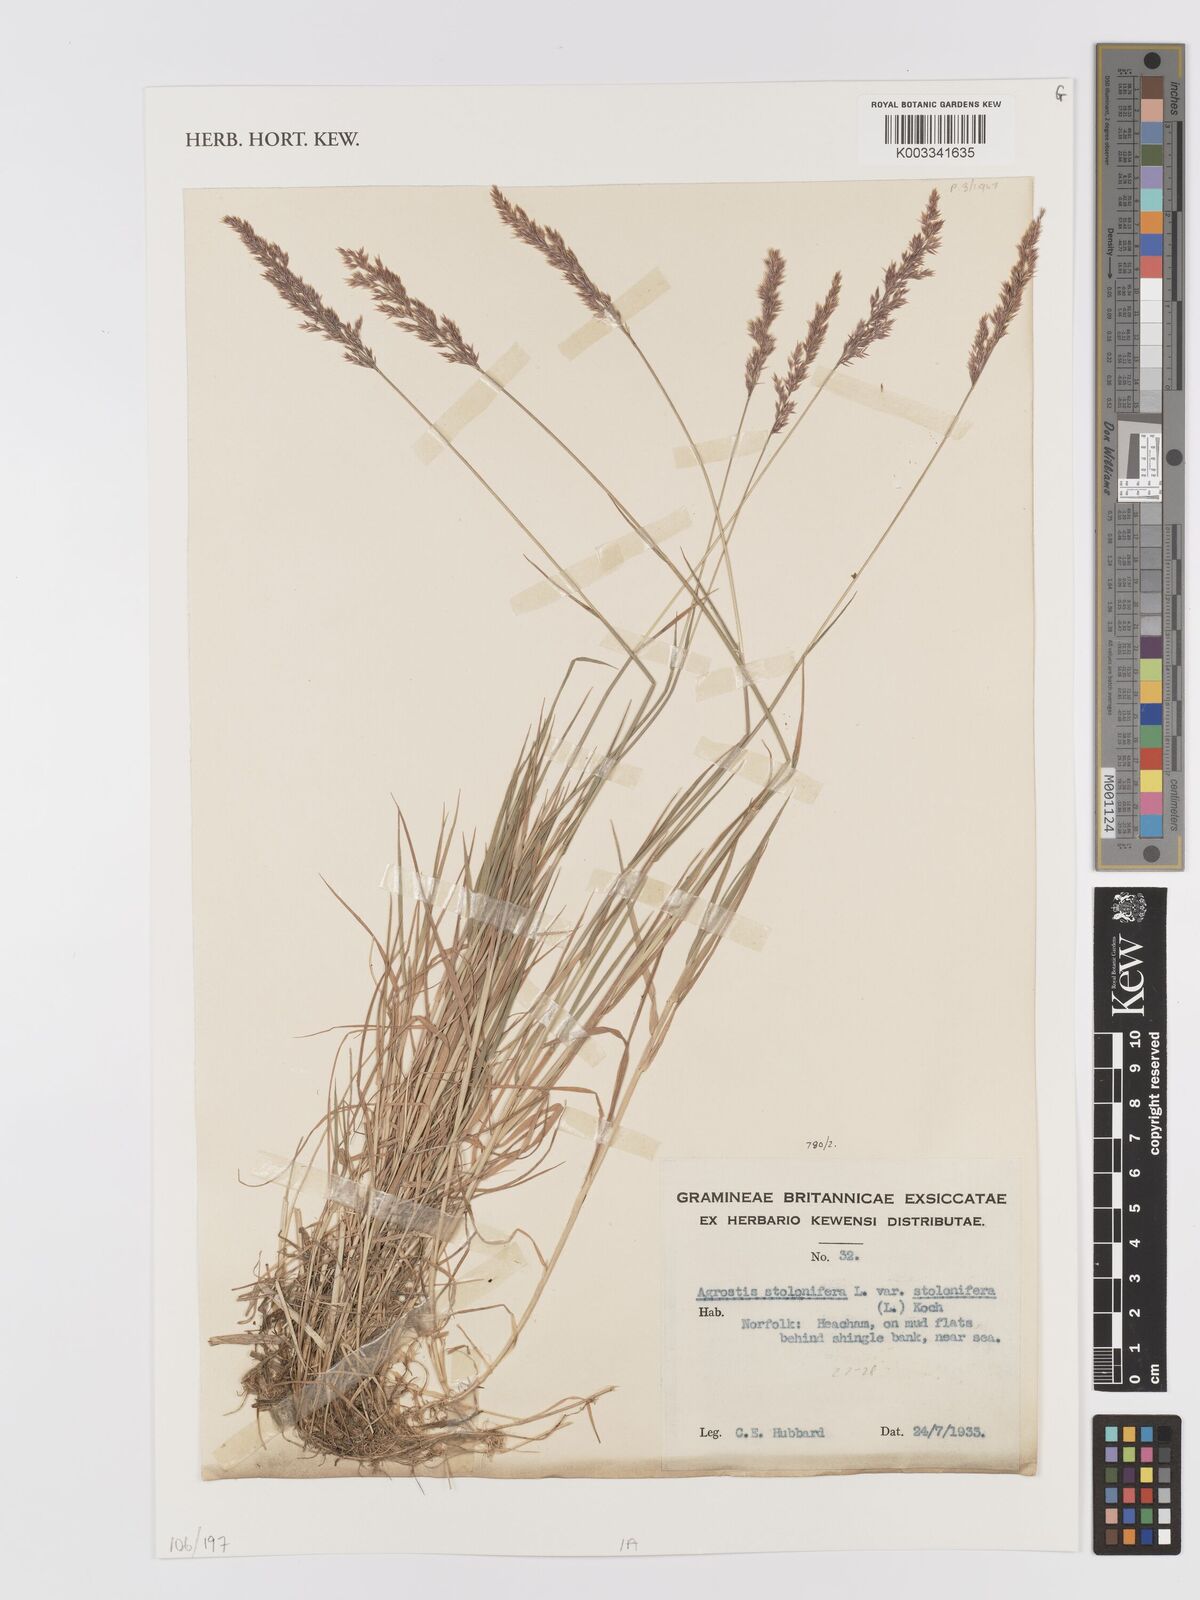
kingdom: Plantae
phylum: Tracheophyta
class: Liliopsida
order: Poales
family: Poaceae
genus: Agrostis
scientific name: Agrostis stolonifera
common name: Creeping bentgrass
